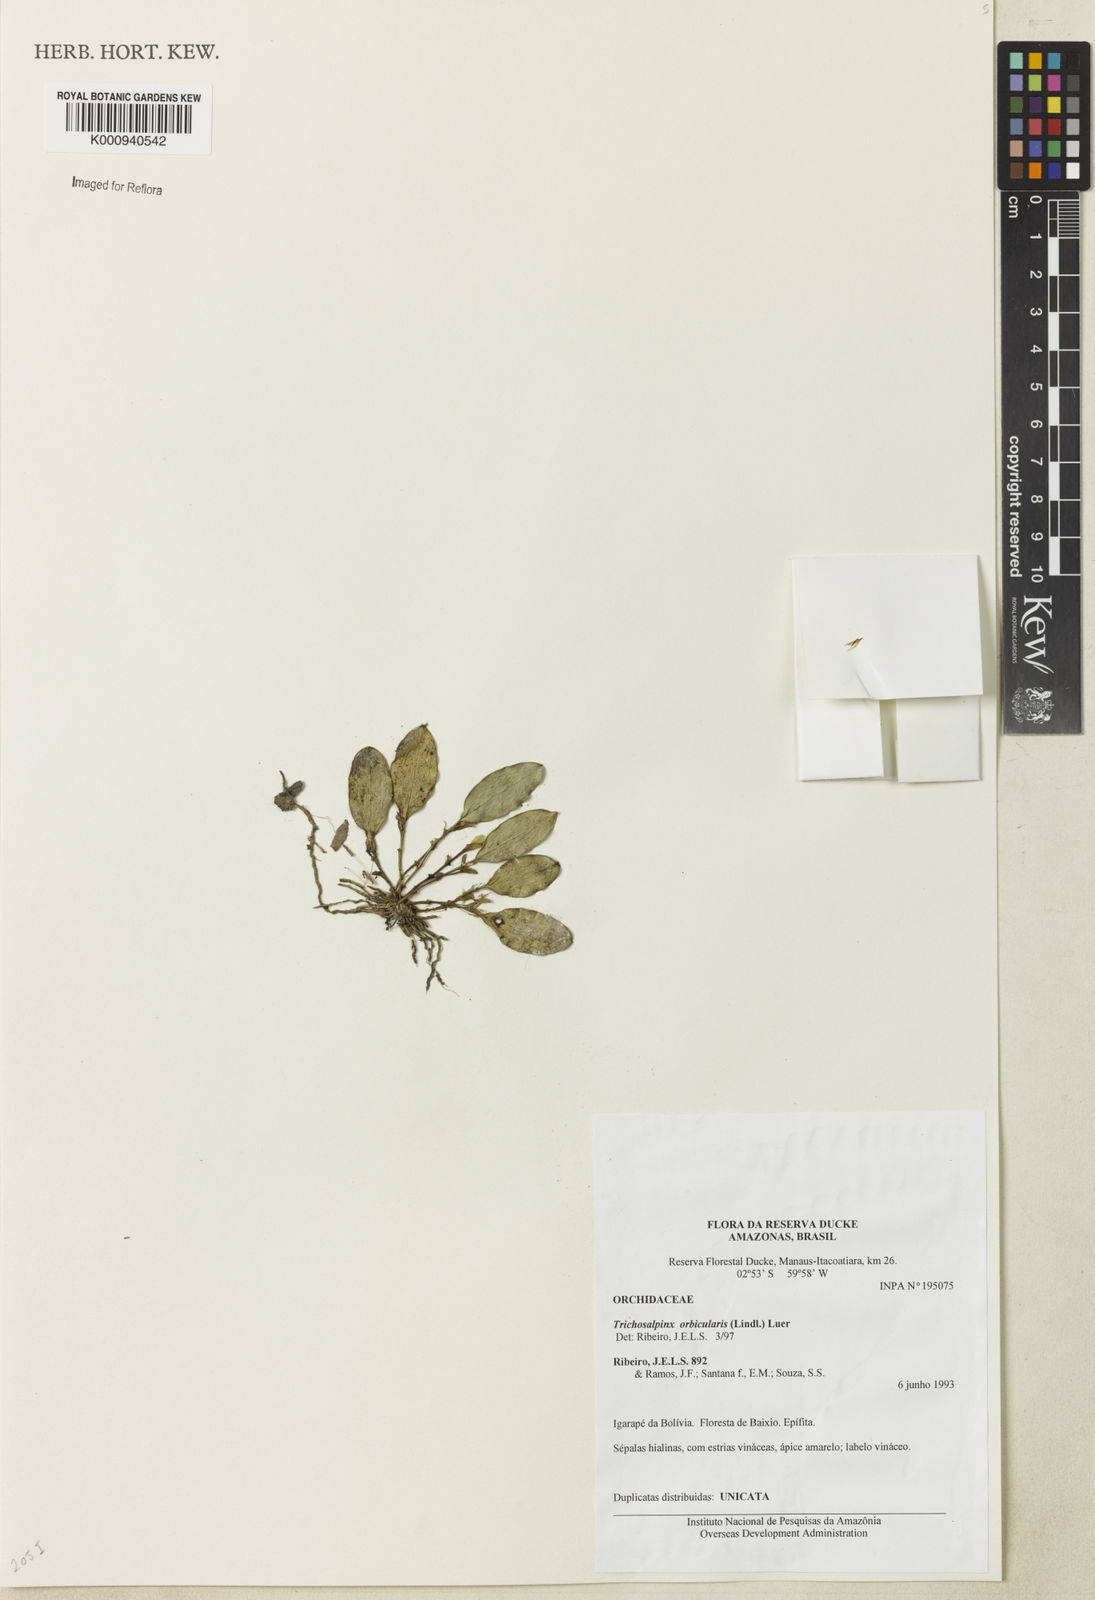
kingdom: Plantae
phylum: Tracheophyta
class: Liliopsida
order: Asparagales
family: Orchidaceae
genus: Trichosalpinx
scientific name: Trichosalpinx orbicularis
